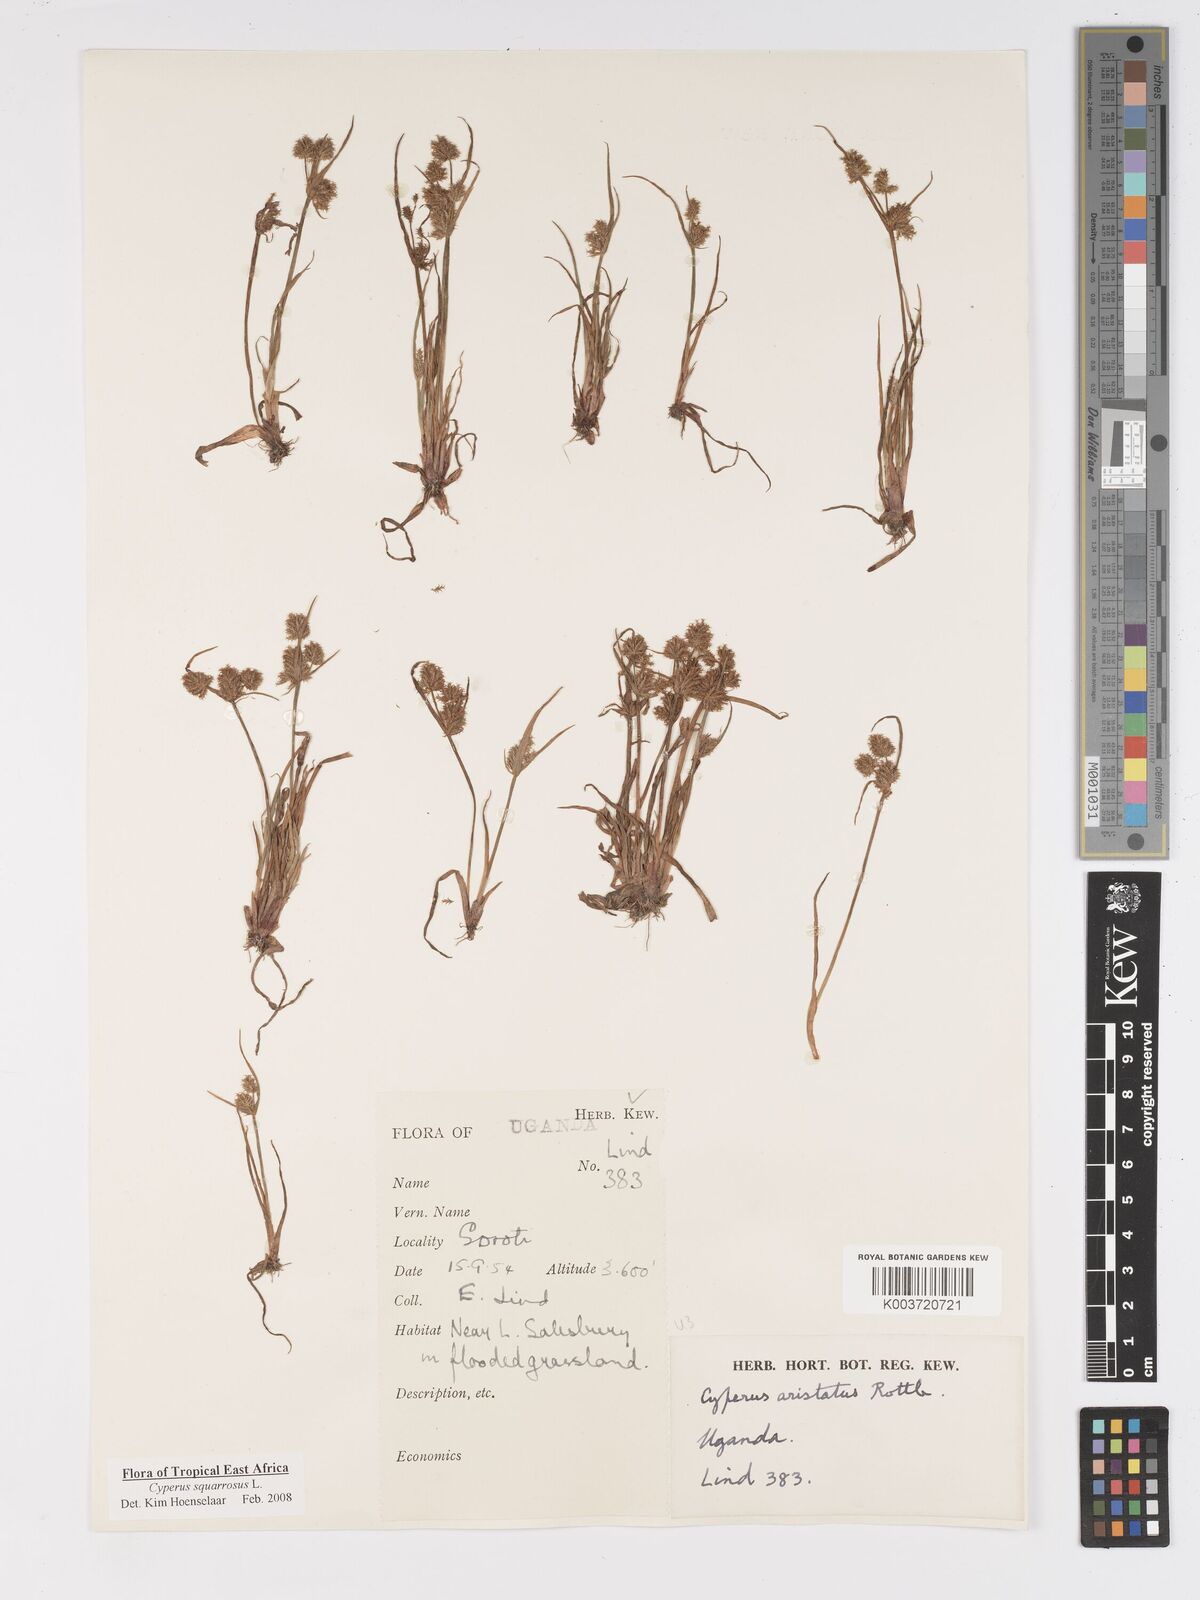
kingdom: Plantae
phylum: Tracheophyta
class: Liliopsida
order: Poales
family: Cyperaceae
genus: Cyperus
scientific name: Cyperus squarrosus
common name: Awned cyperus
